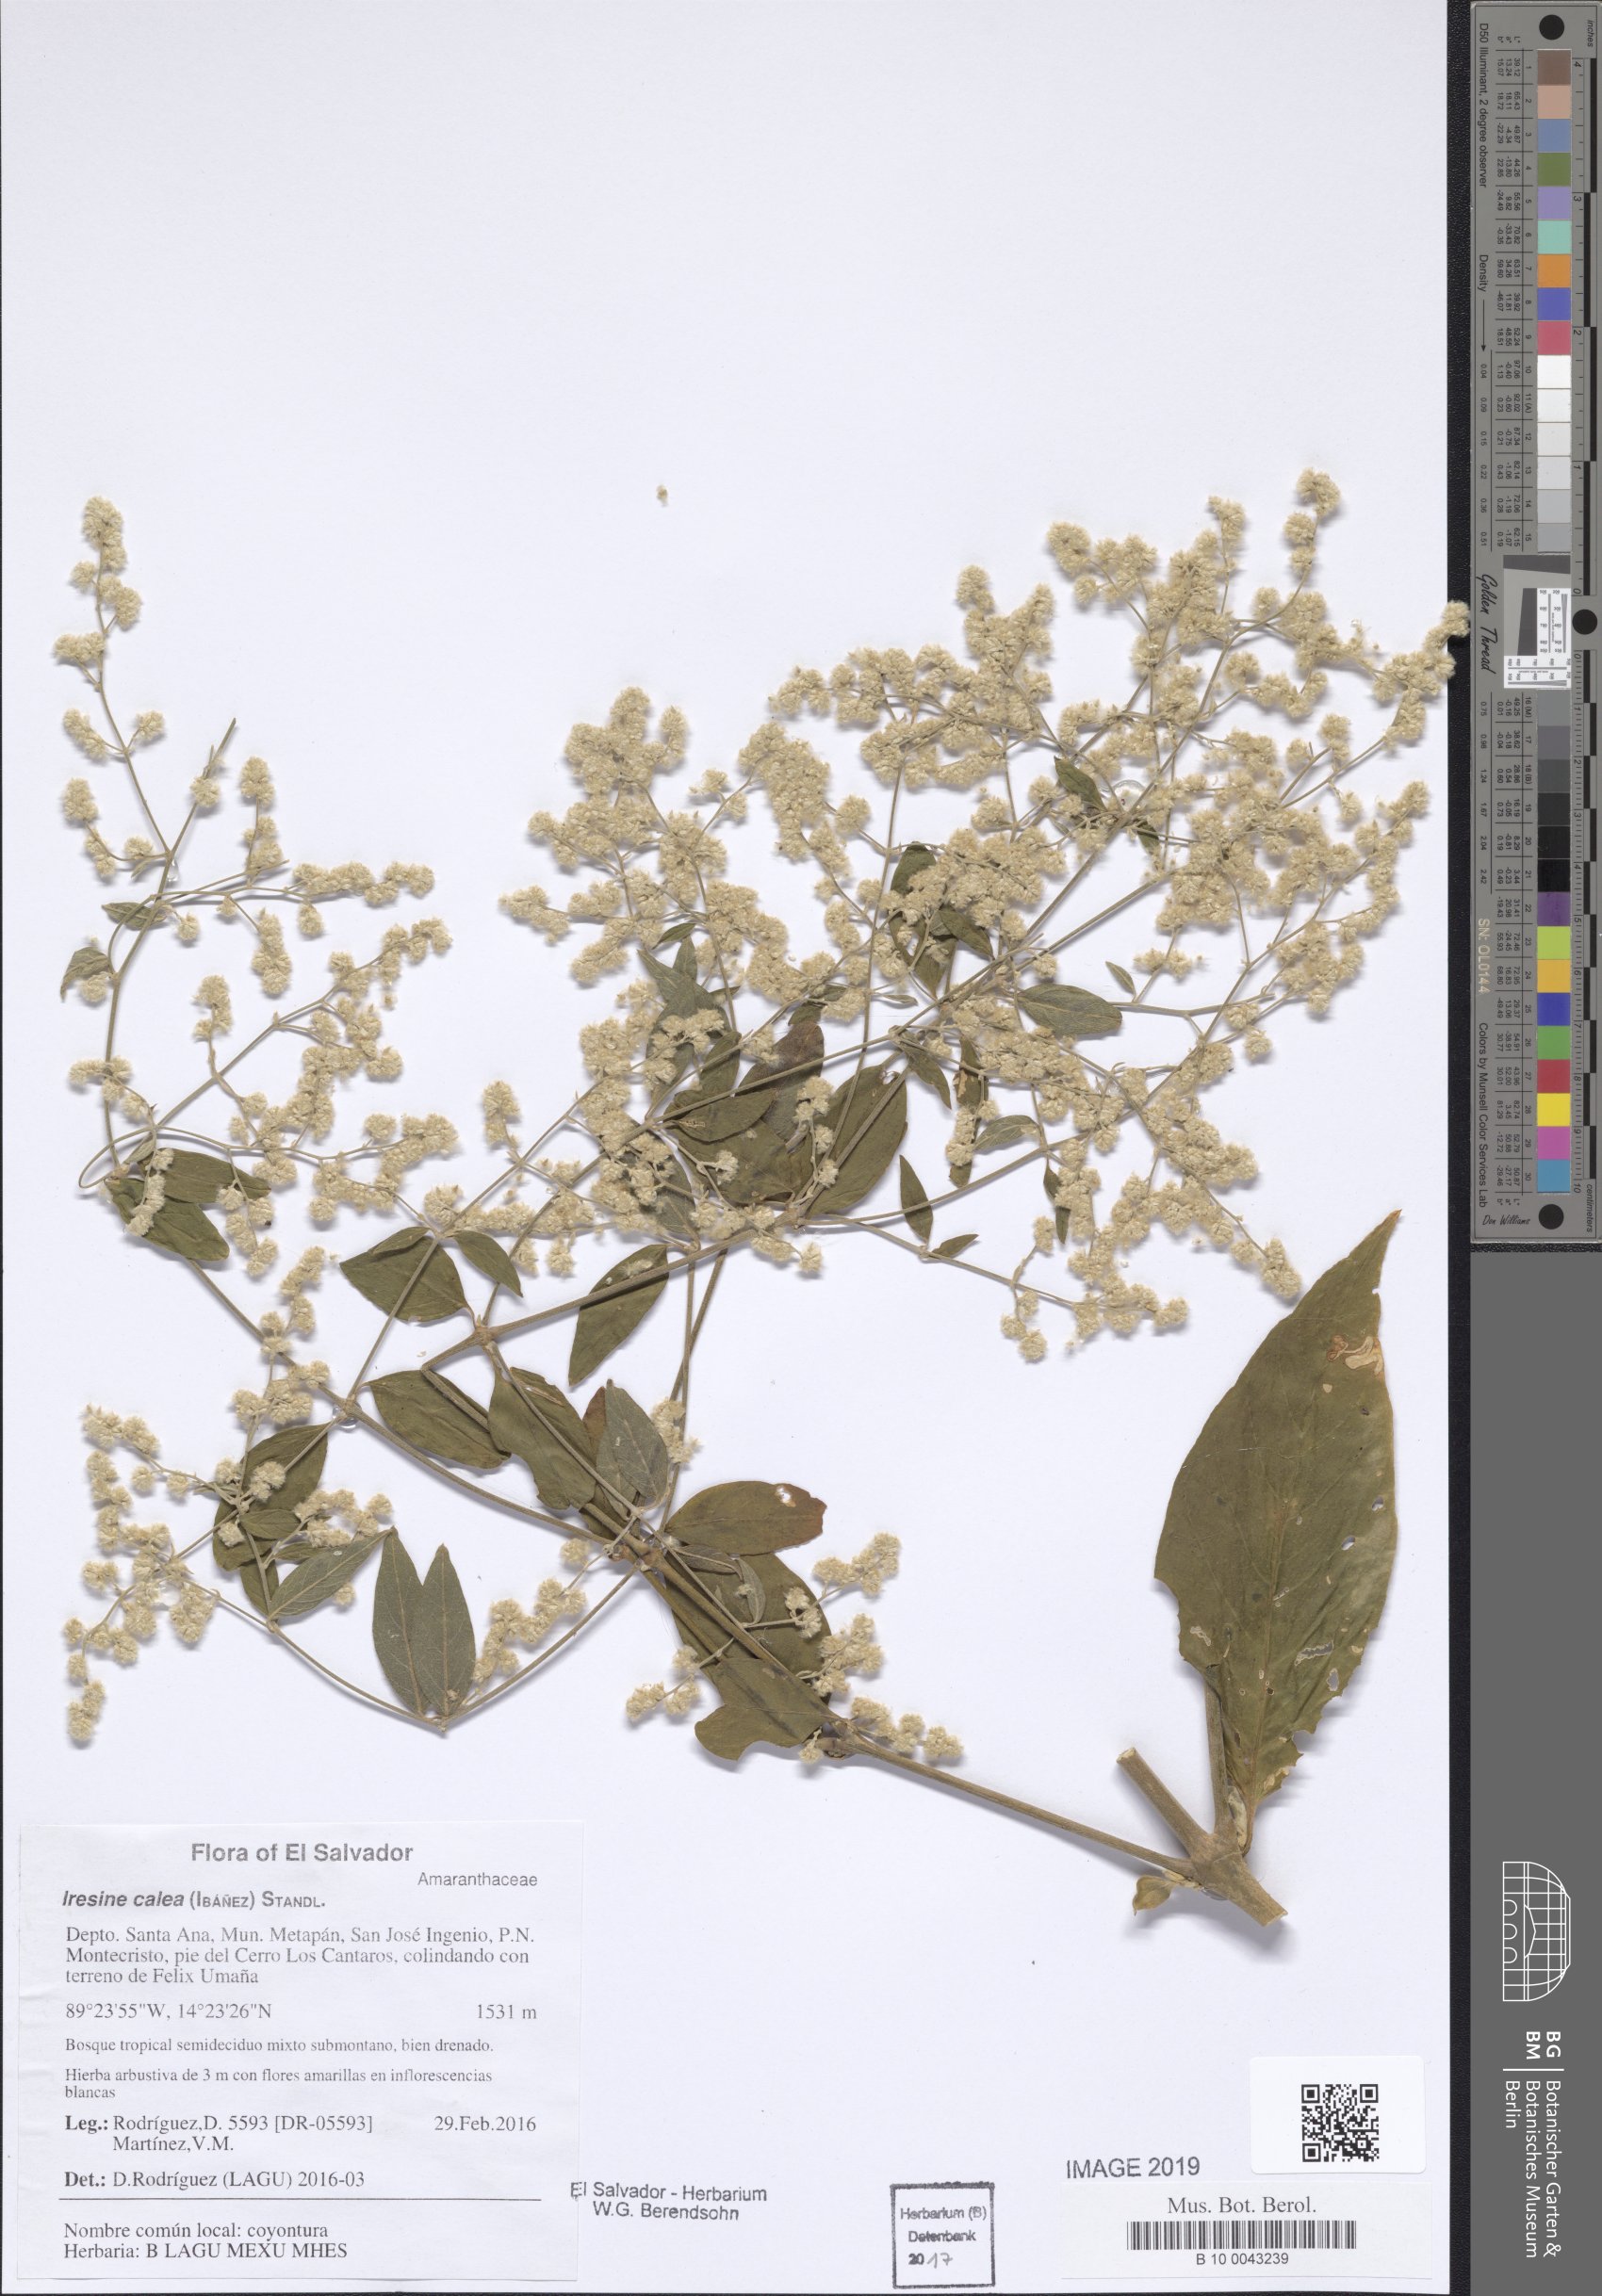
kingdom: Plantae
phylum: Tracheophyta
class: Magnoliopsida
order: Caryophyllales
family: Amaranthaceae
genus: Iresine
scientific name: Iresine latifolia
